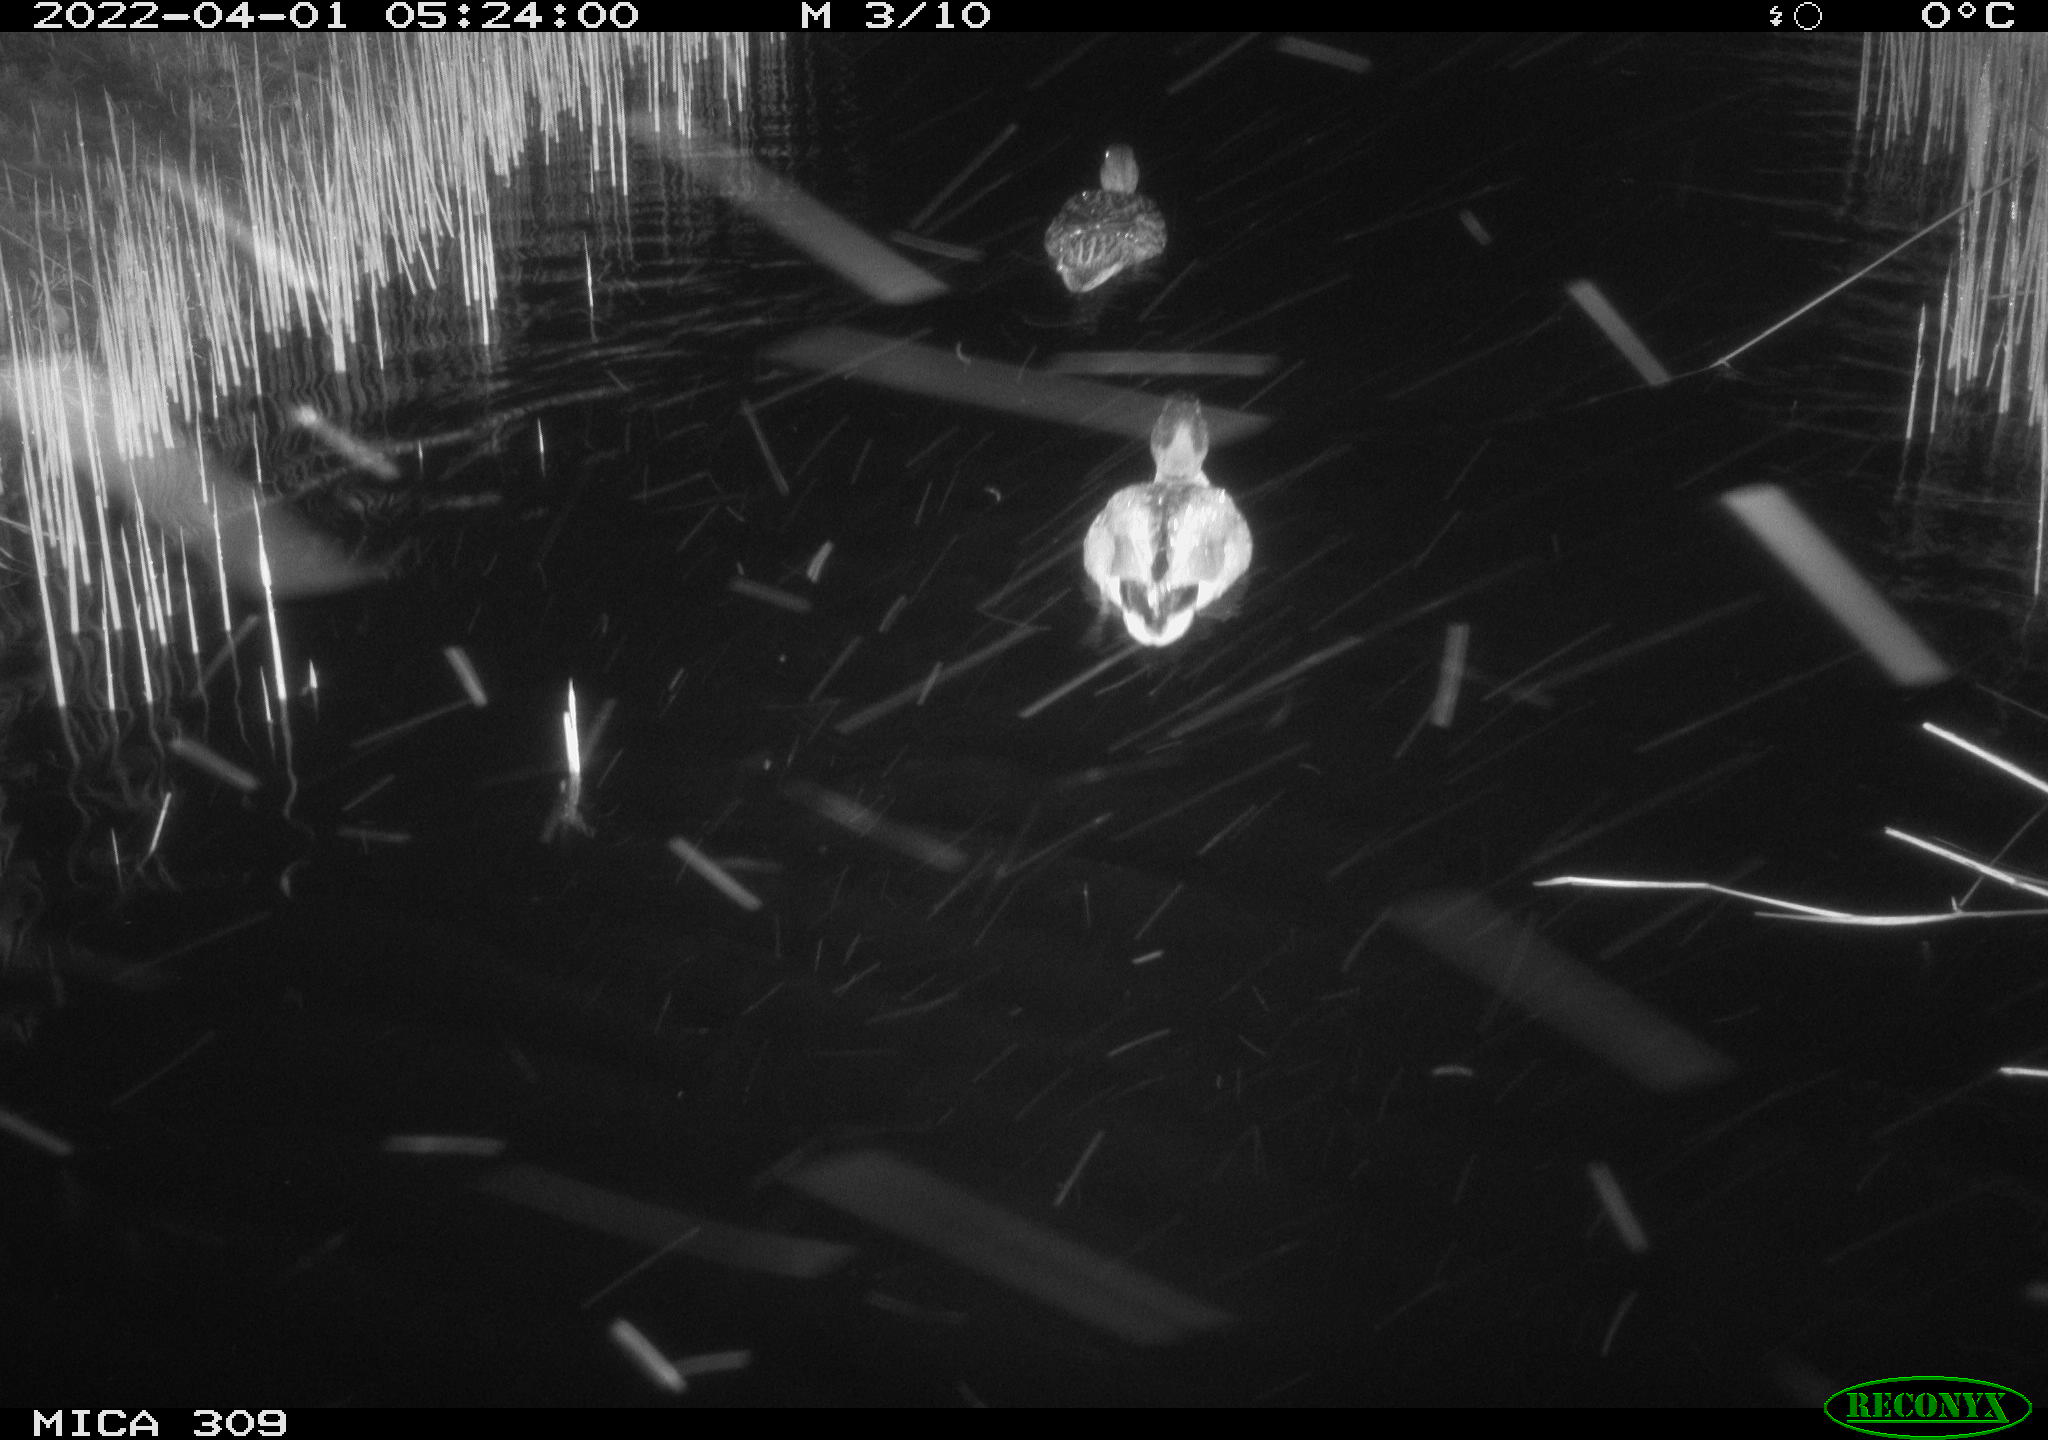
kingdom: Animalia
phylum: Chordata
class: Aves
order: Anseriformes
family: Anatidae
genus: Anas
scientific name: Anas platyrhynchos
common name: Mallard
